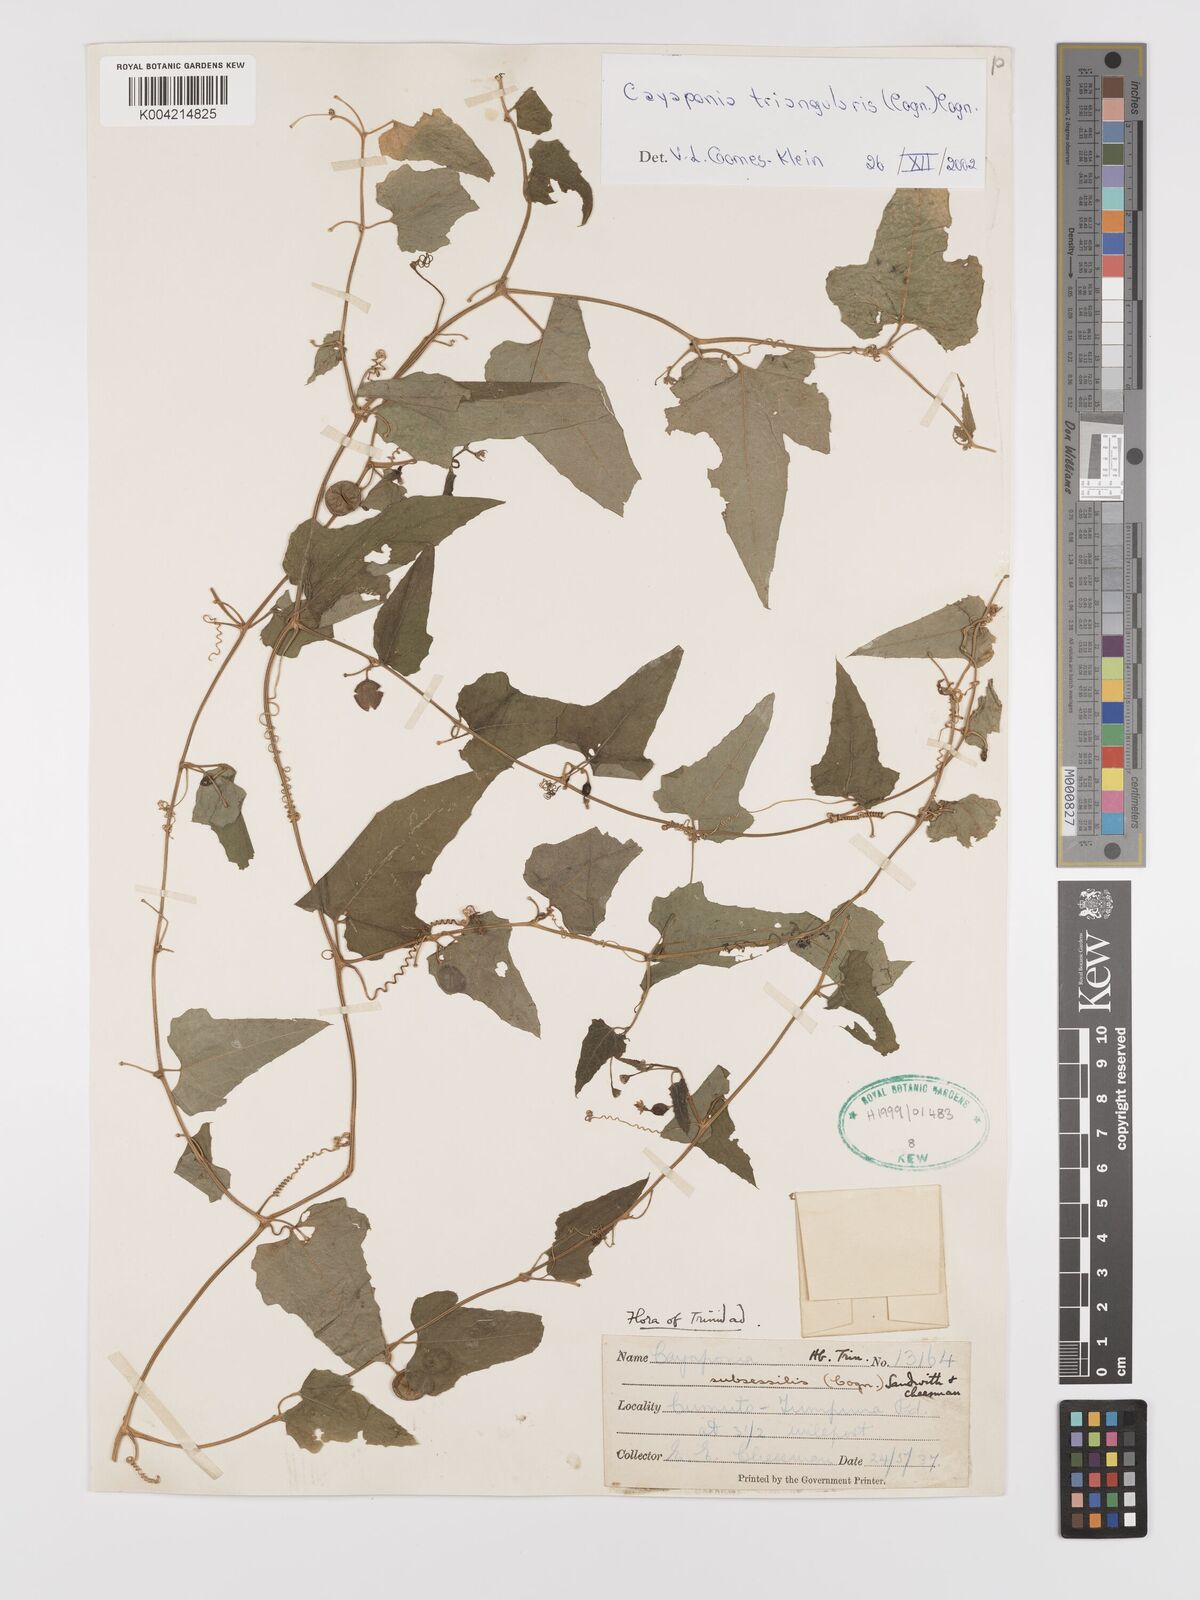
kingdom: Plantae
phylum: Tracheophyta
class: Magnoliopsida
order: Cucurbitales
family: Cucurbitaceae
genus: Cayaponia
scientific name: Cayaponia triangularis
